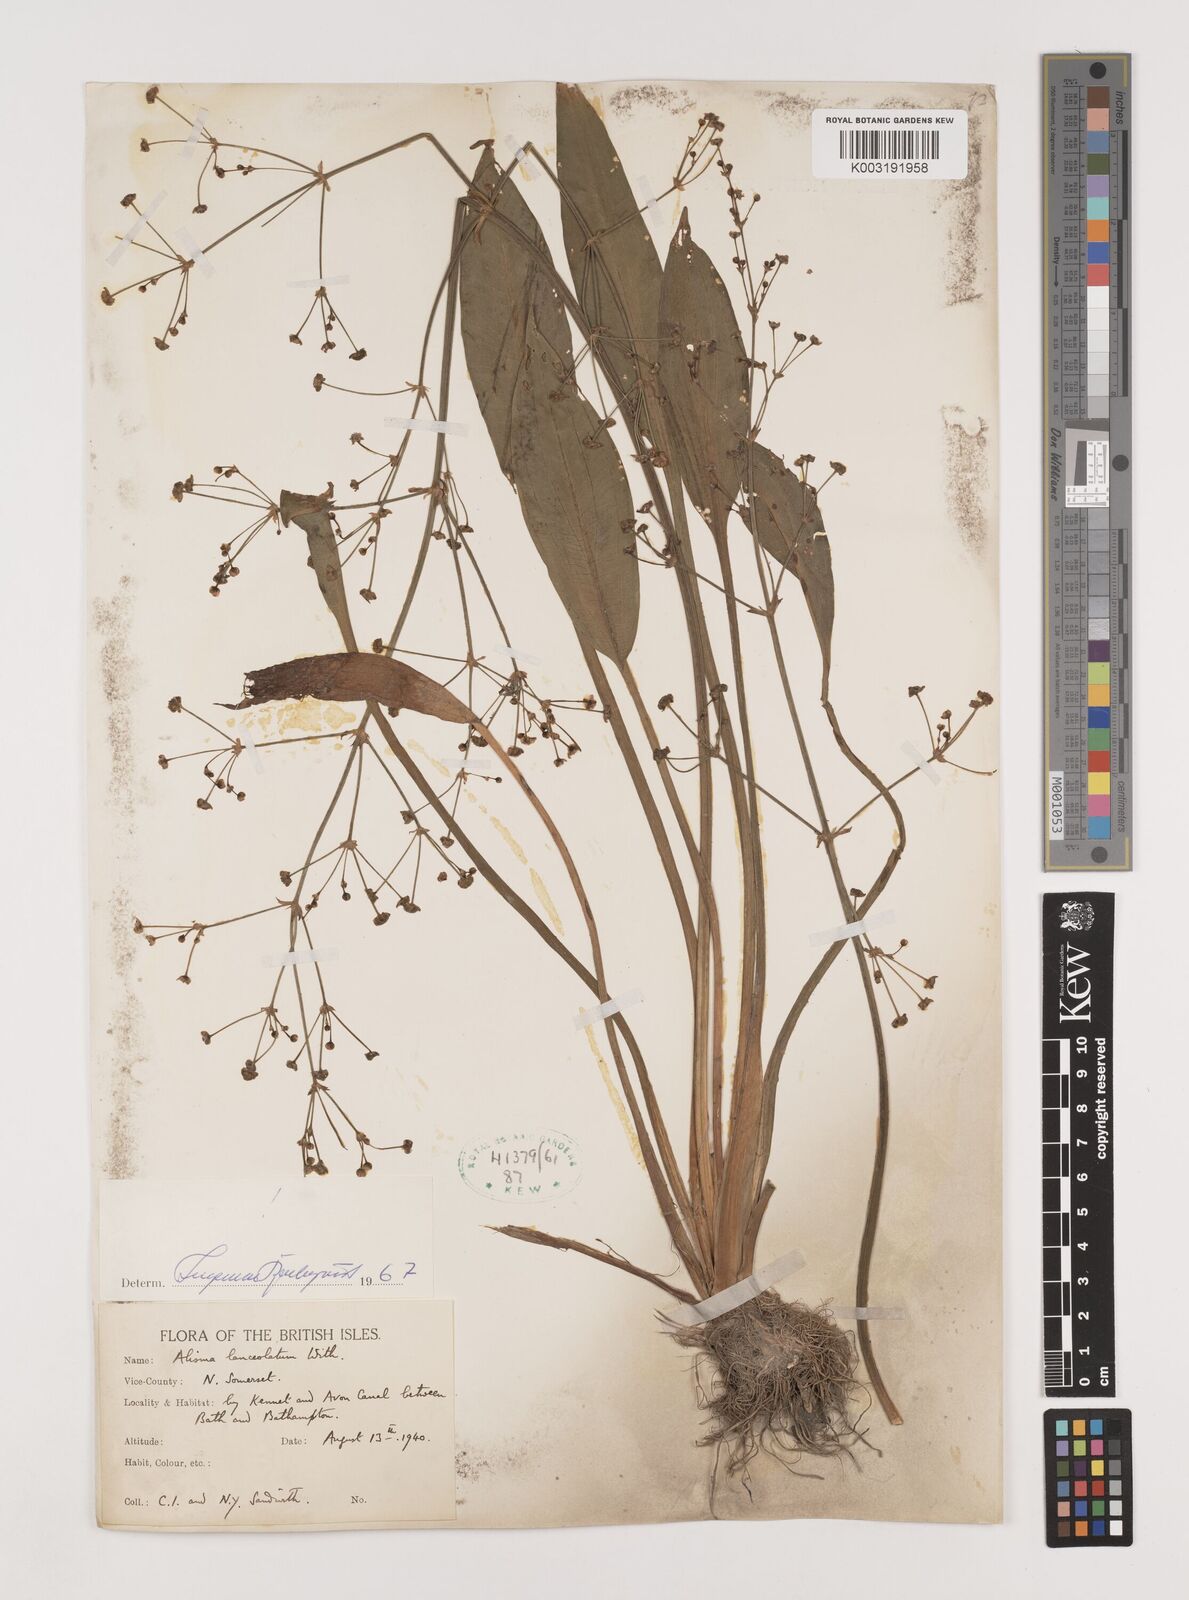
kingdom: Plantae
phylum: Tracheophyta
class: Liliopsida
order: Alismatales
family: Alismataceae
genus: Alisma
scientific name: Alisma lanceolatum
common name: Narrow-leaved water-plantain
